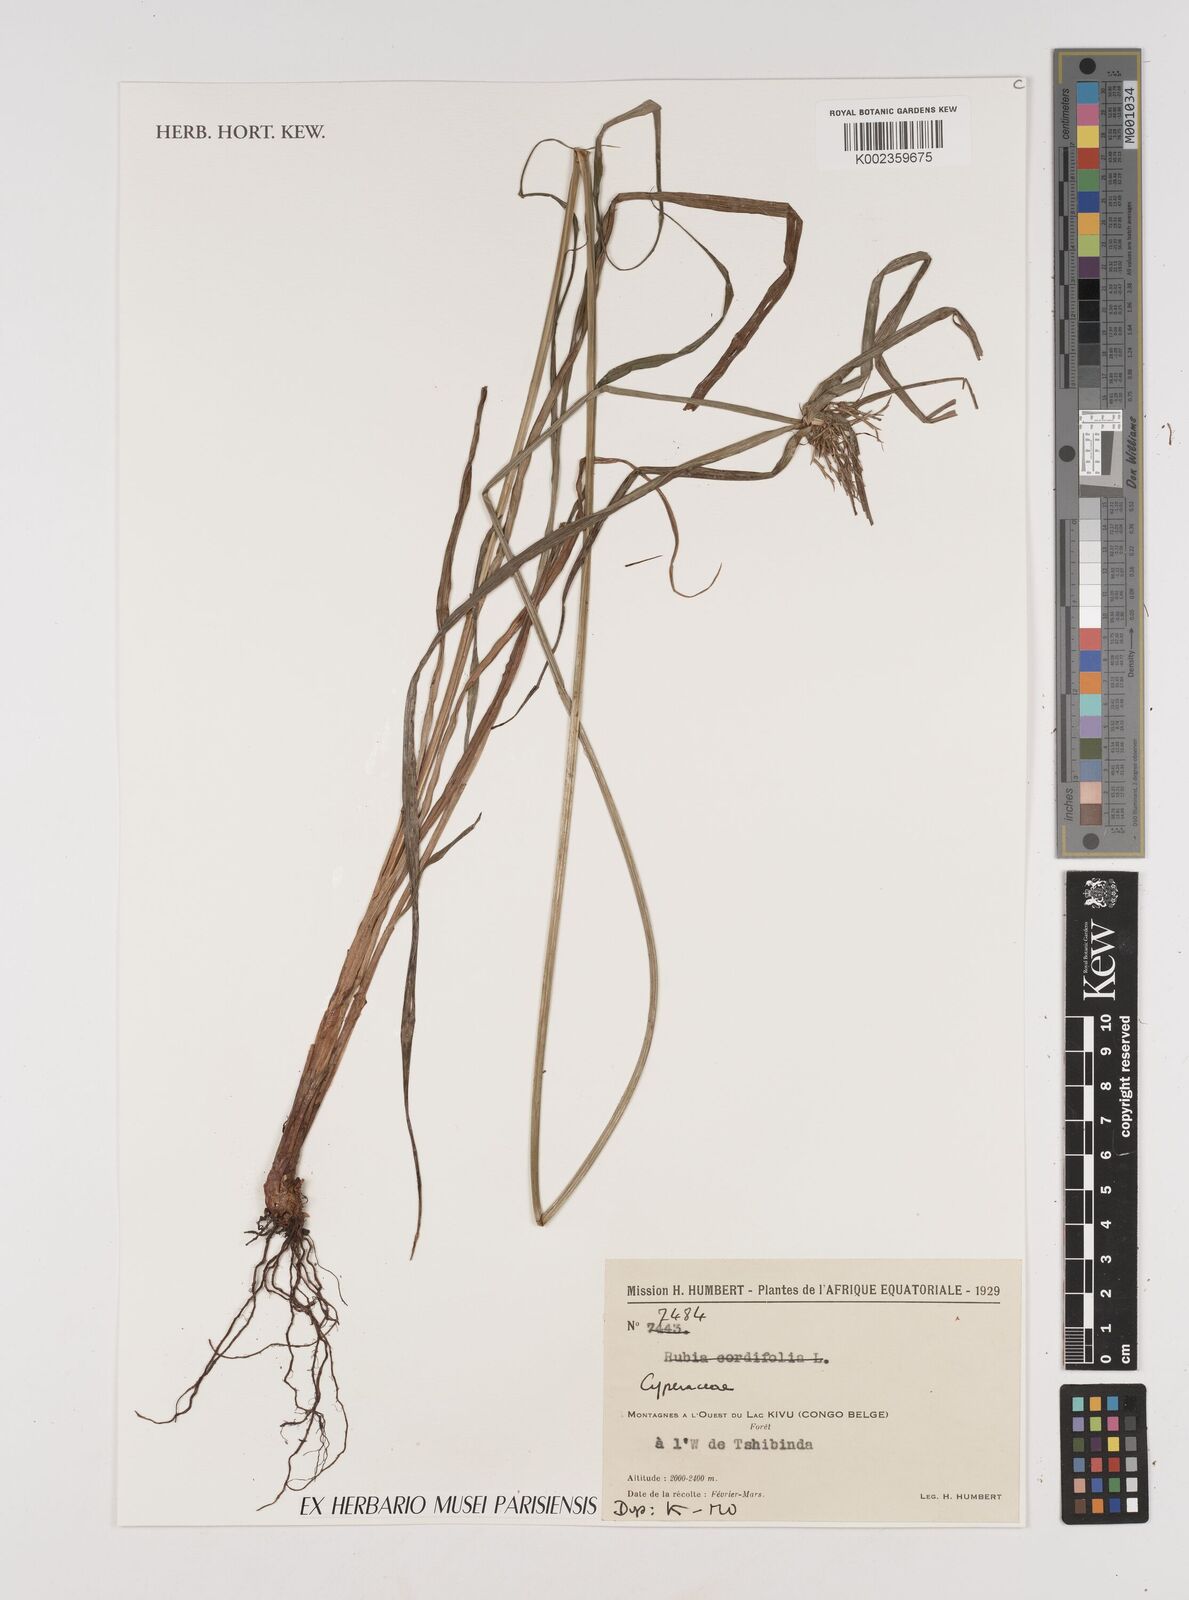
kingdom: Plantae
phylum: Tracheophyta
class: Liliopsida
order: Poales
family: Cyperaceae
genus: Cyperus
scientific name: Cyperus
